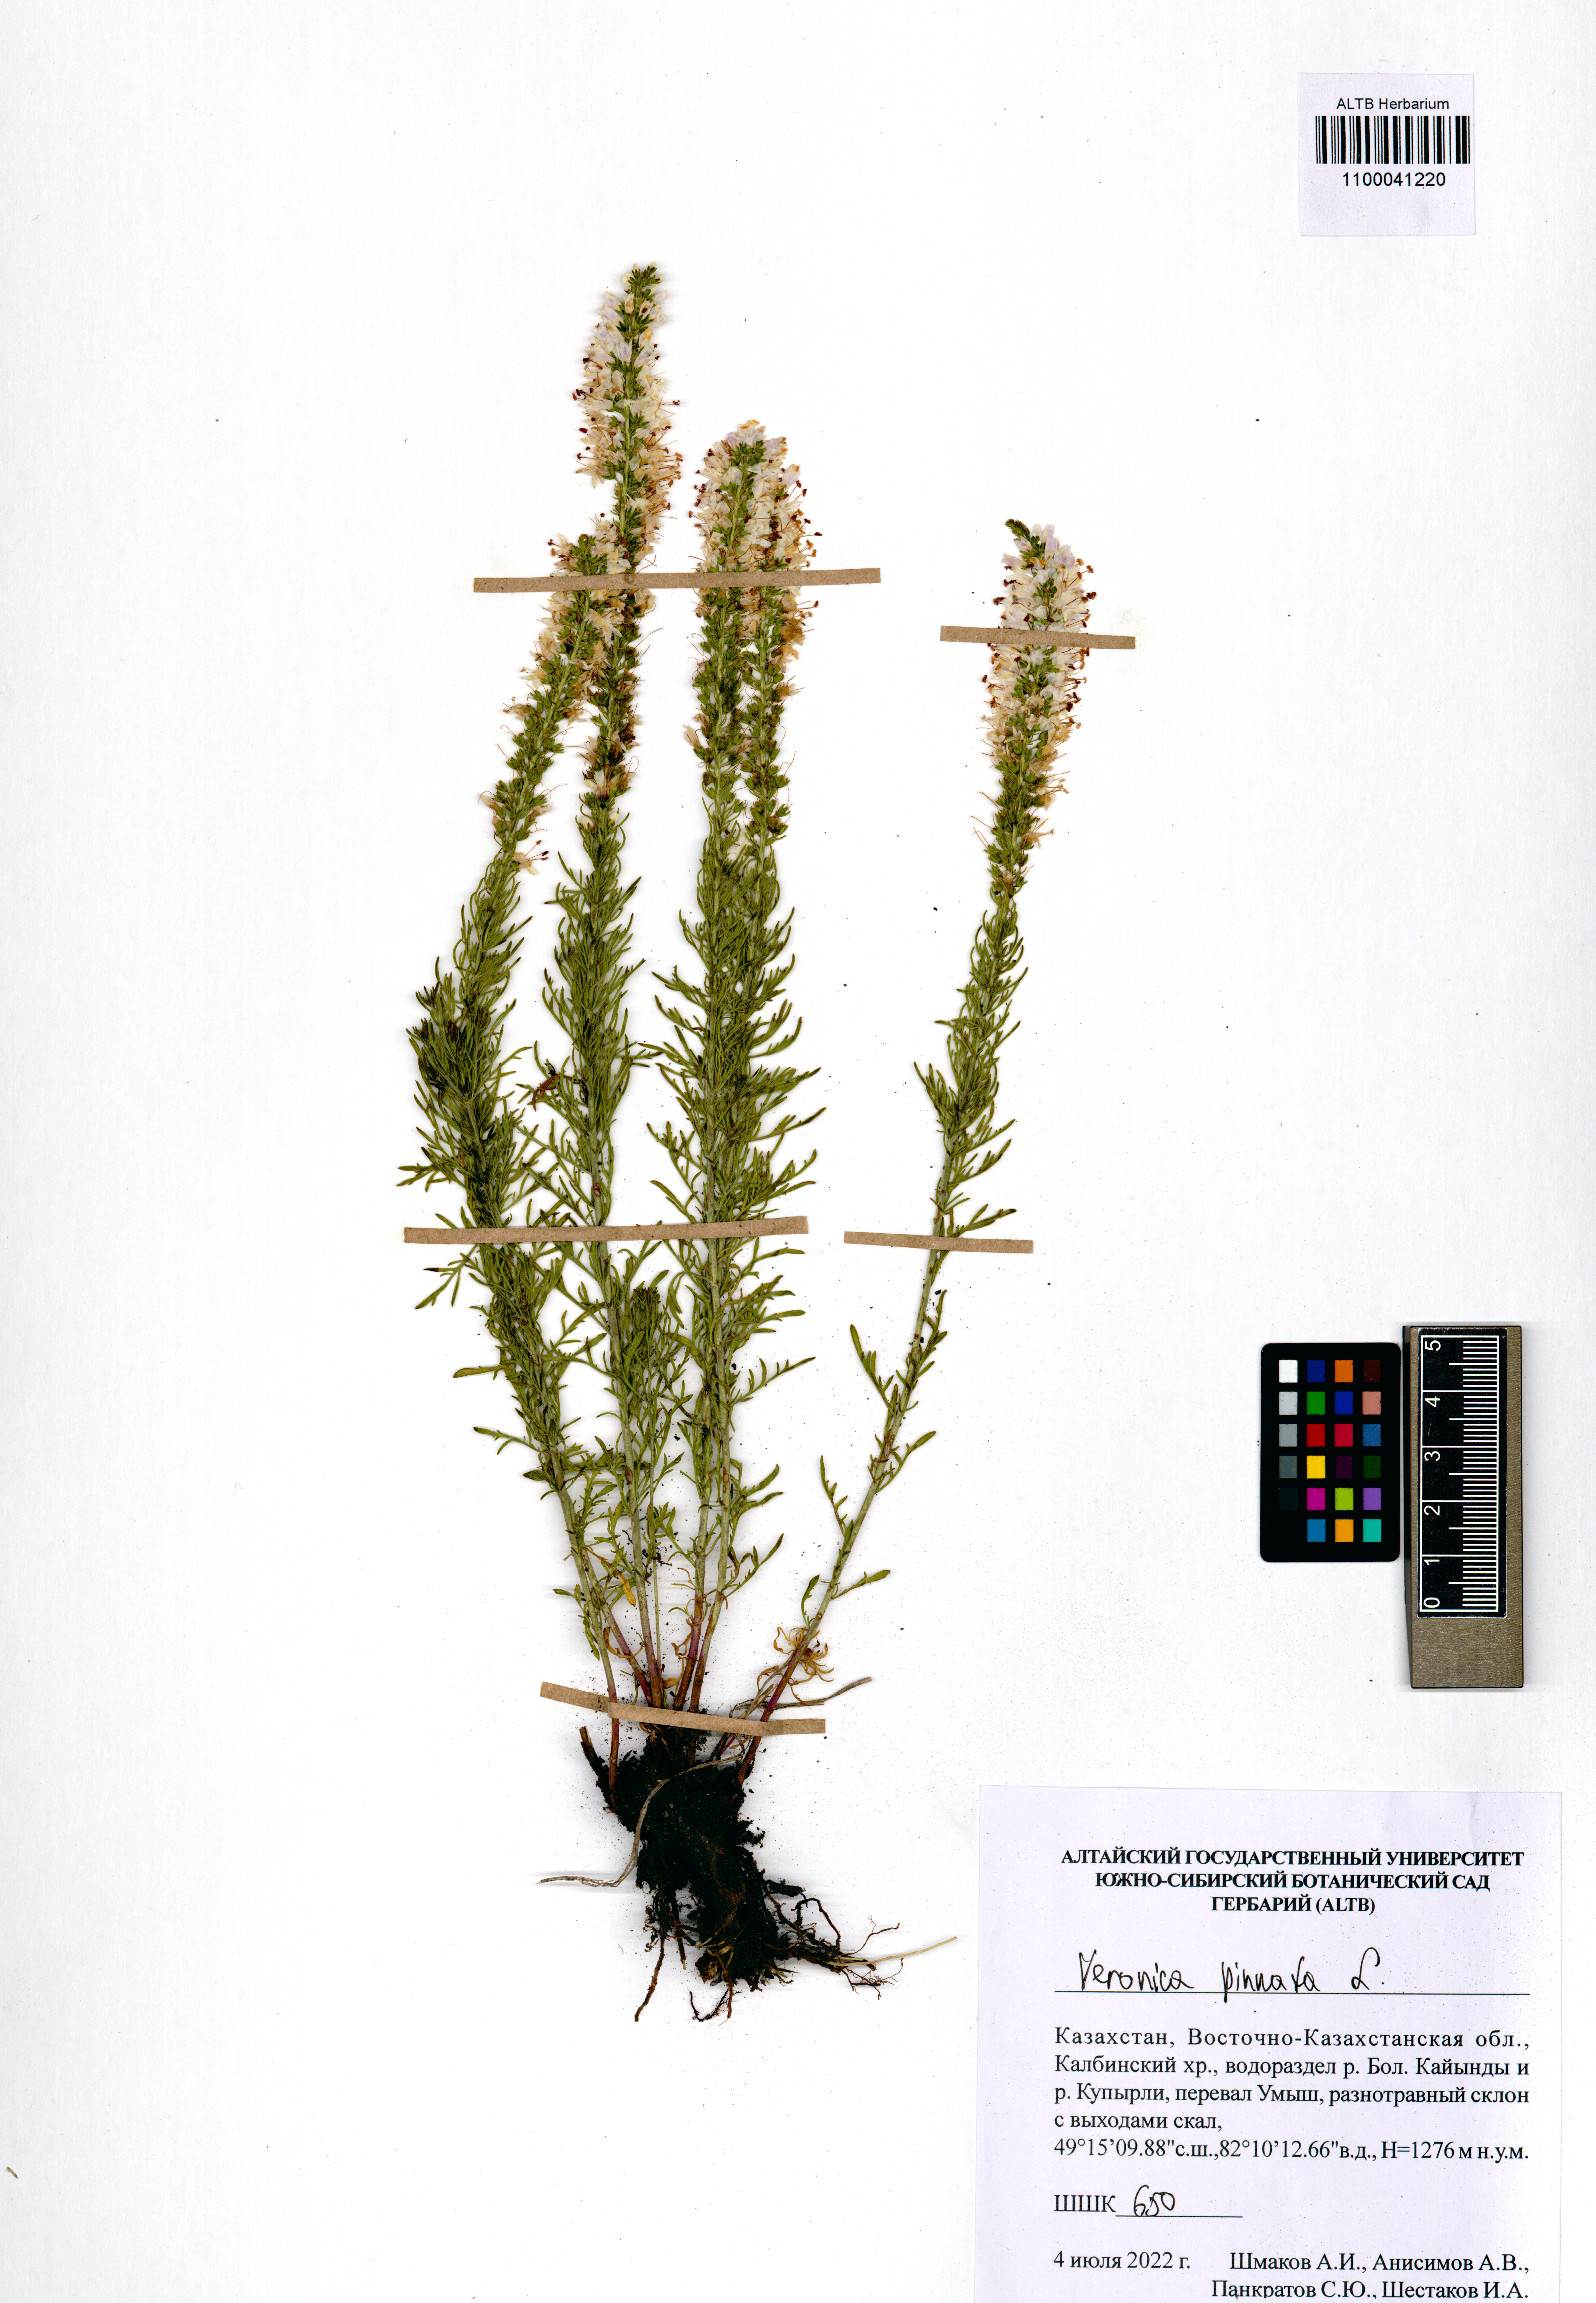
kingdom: Plantae
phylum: Tracheophyta
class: Magnoliopsida
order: Lamiales
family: Plantaginaceae
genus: Veronica
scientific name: Veronica pinnata
